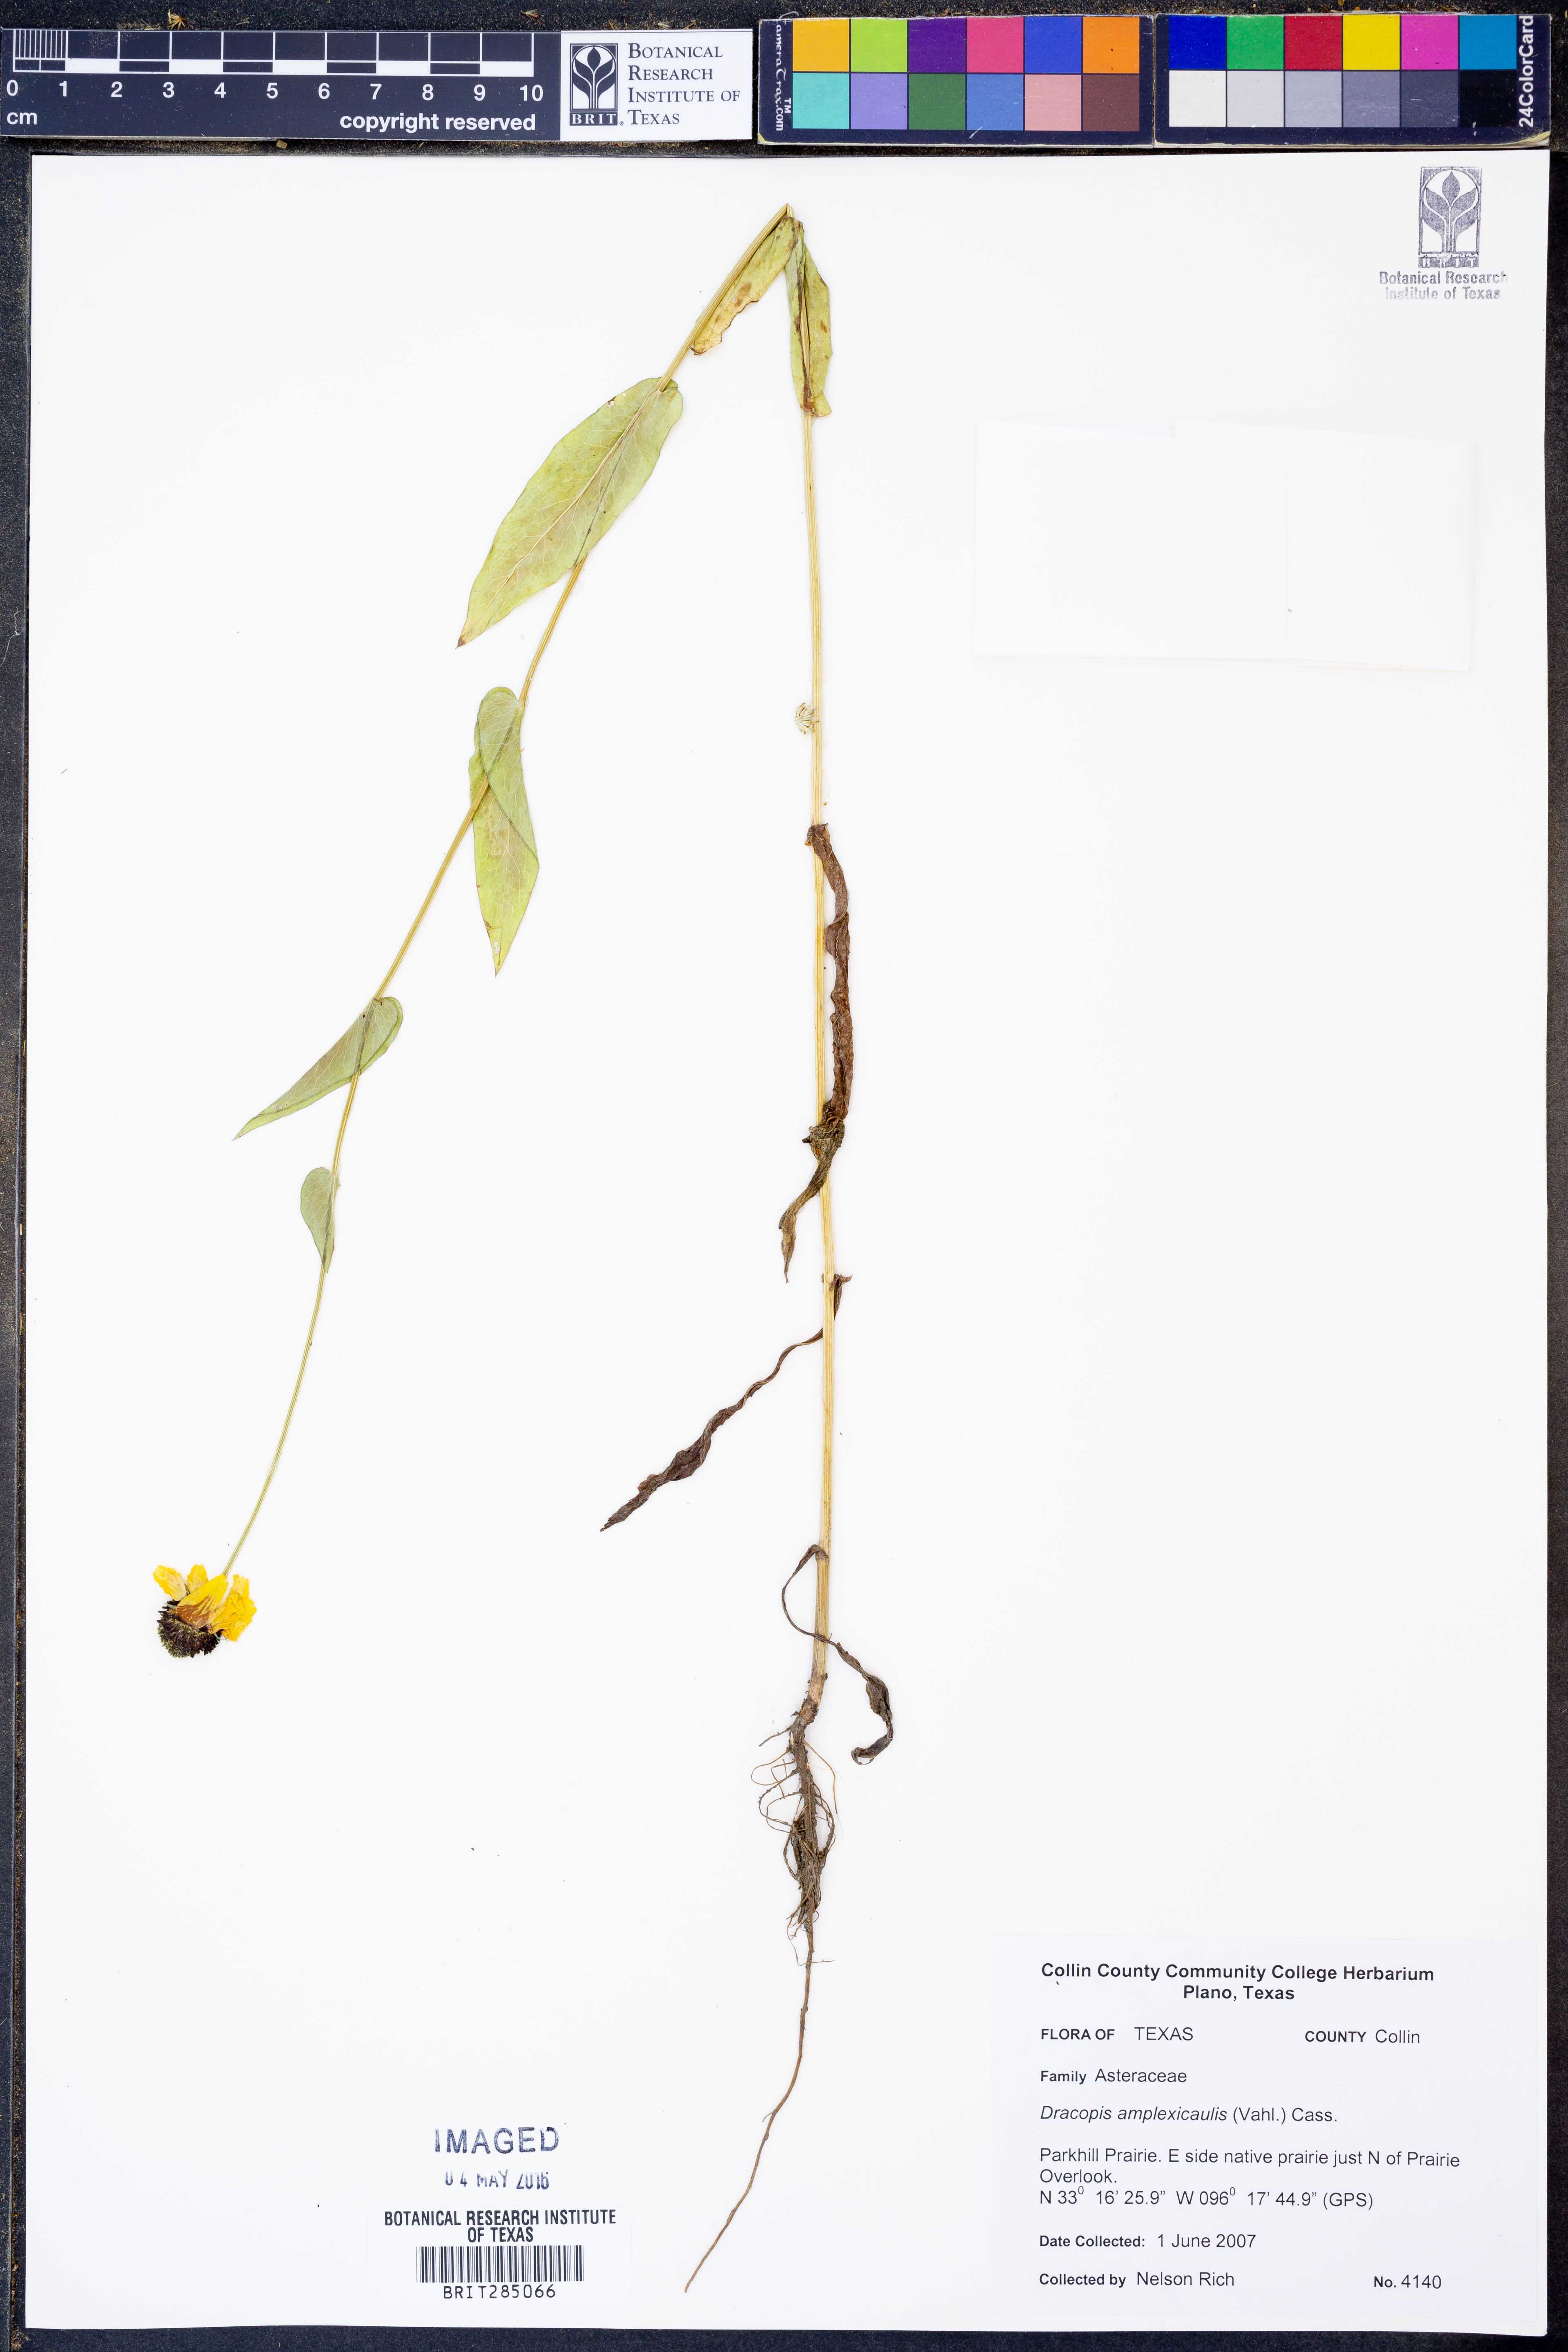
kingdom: Plantae
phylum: Tracheophyta
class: Magnoliopsida
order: Asterales
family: Asteraceae
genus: Rudbeckia
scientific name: Rudbeckia amplexicaulis
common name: Clasping-leaf coneflower
